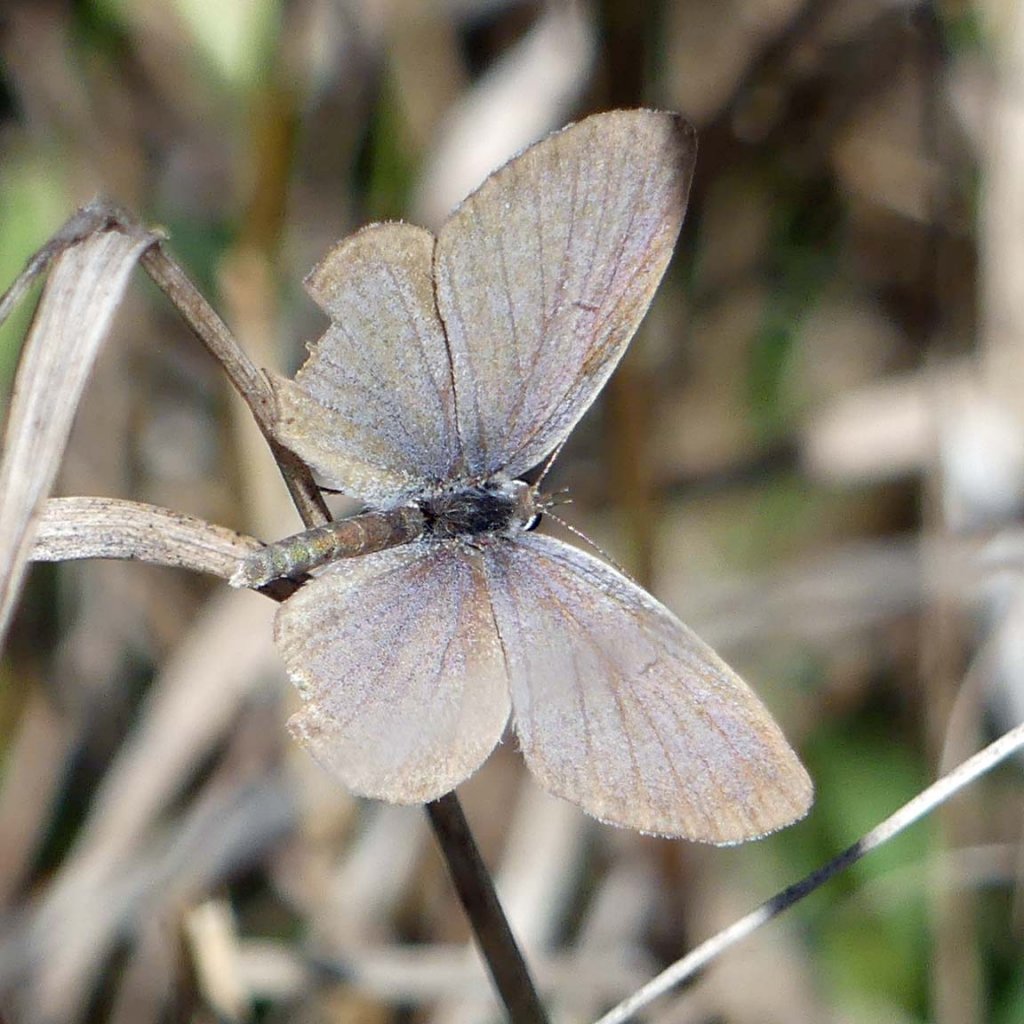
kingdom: Animalia
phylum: Arthropoda
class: Insecta
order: Lepidoptera
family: Lycaenidae
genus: Elkalyce
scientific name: Elkalyce comyntas
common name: Eastern Tailed-Blue
